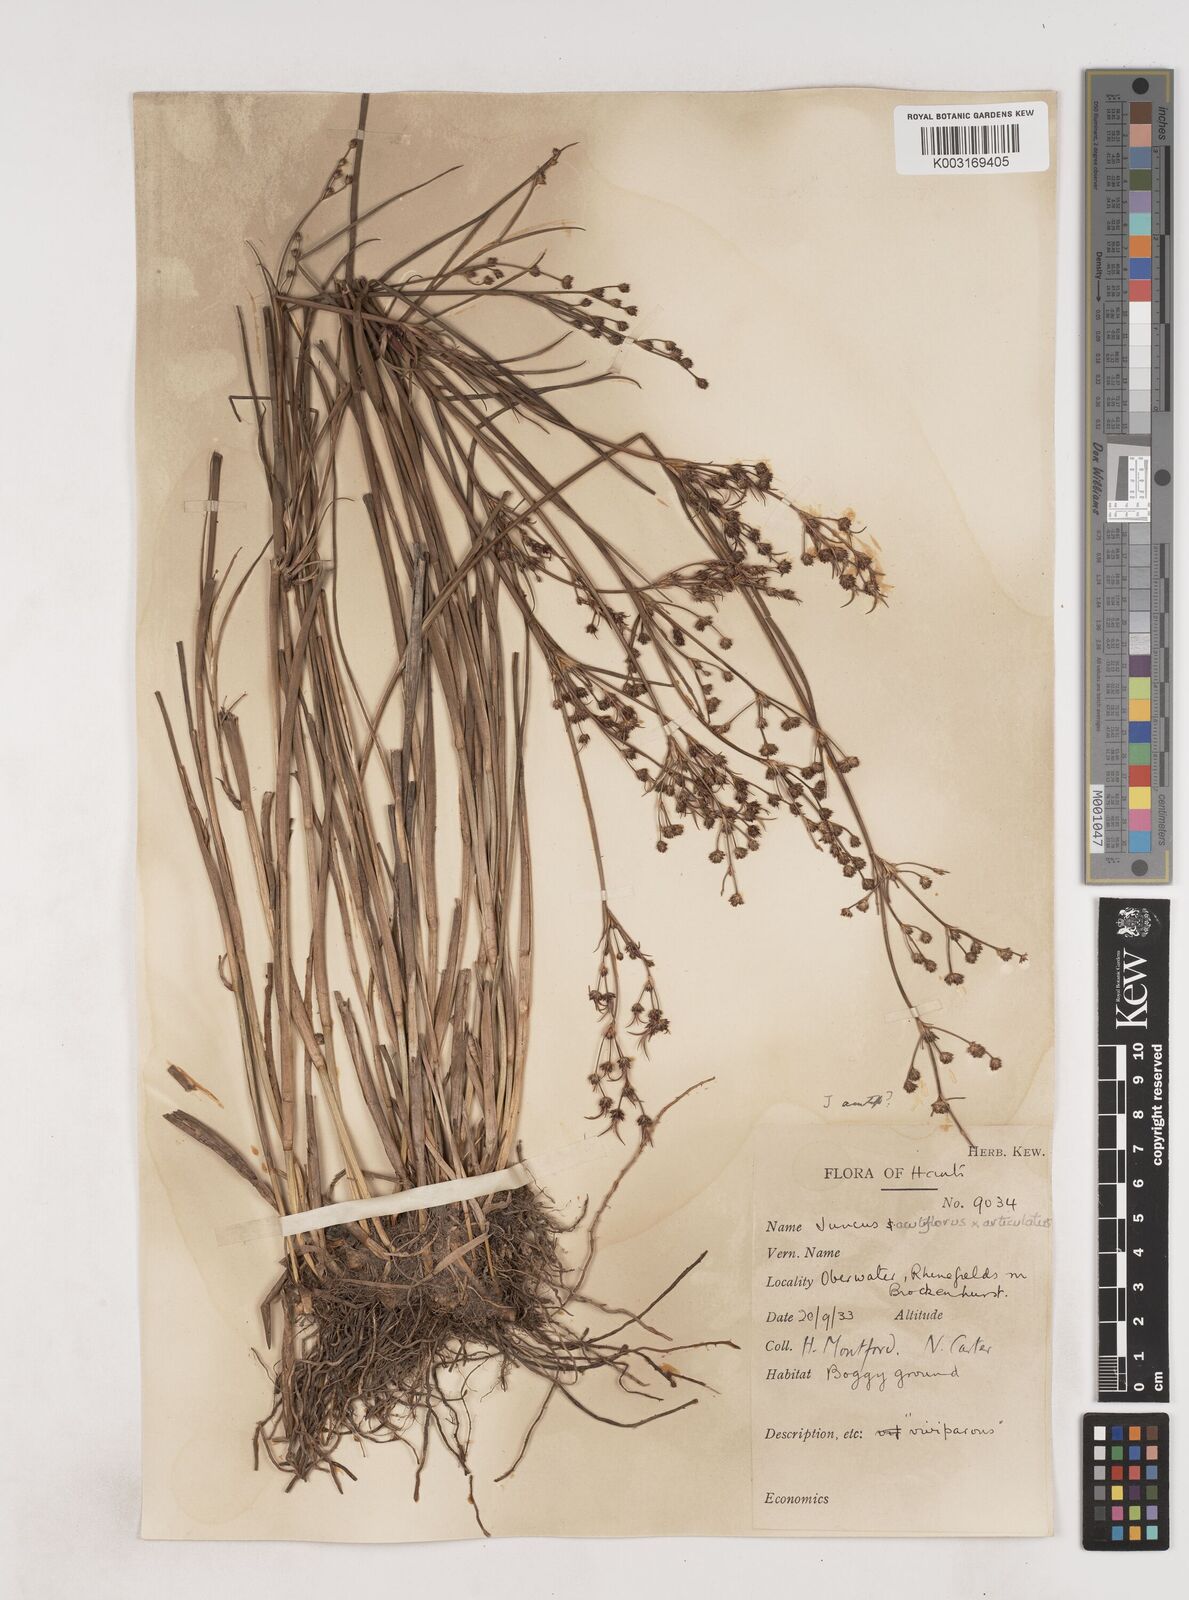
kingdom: Plantae
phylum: Tracheophyta
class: Liliopsida
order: Poales
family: Juncaceae
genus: Juncus
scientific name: Juncus
